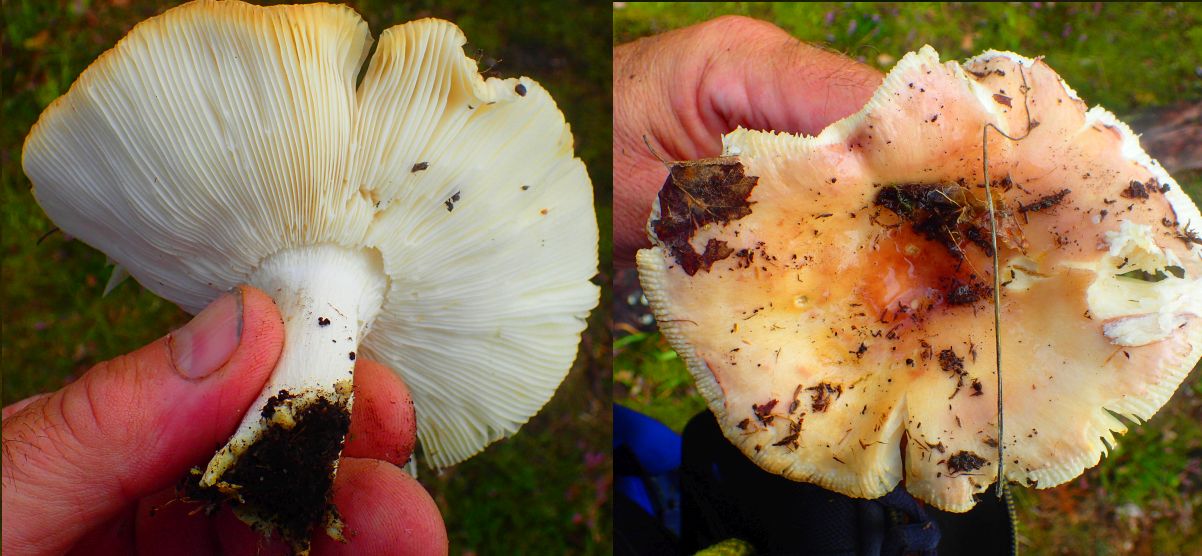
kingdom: Fungi
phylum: Basidiomycota
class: Agaricomycetes
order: Russulales
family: Russulaceae
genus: Russula
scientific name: Russula vesca
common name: spiselig skørhat
